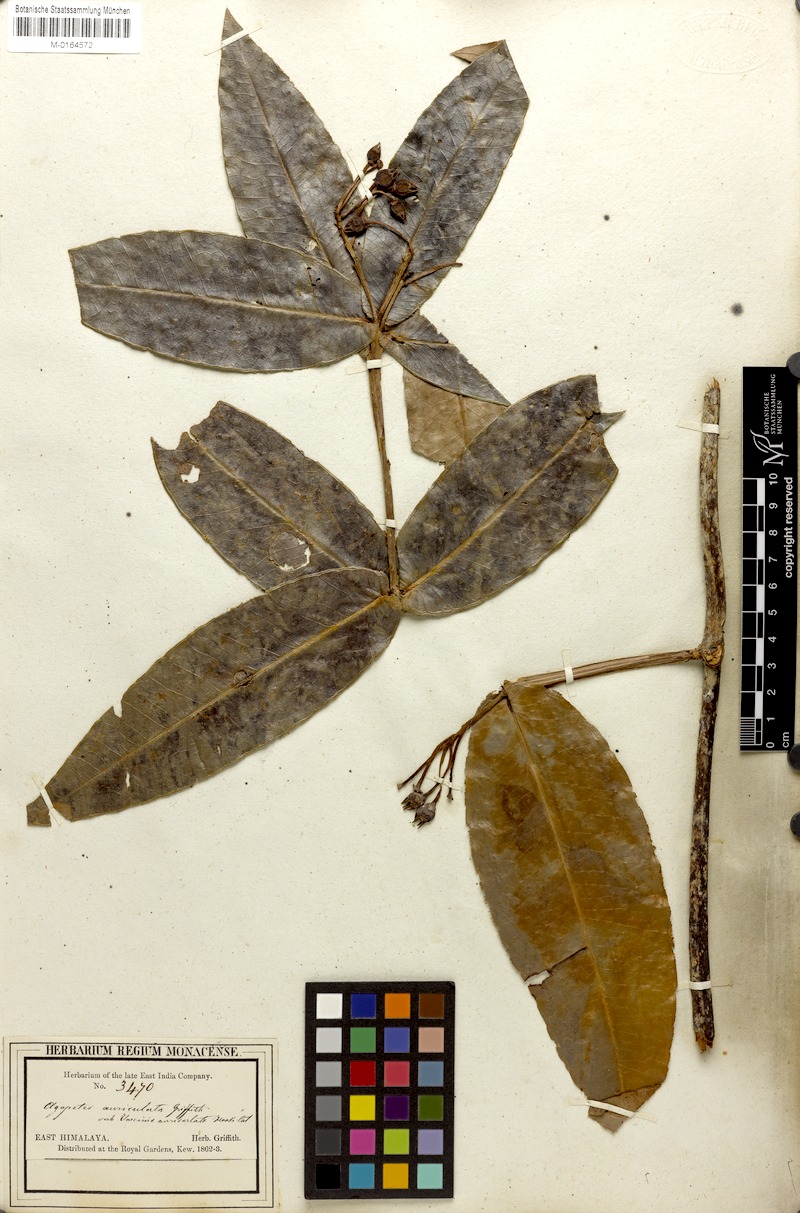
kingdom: Plantae
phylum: Tracheophyta
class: Magnoliopsida
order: Ericales
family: Ericaceae
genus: Agapetes
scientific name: Agapetes auriculata
